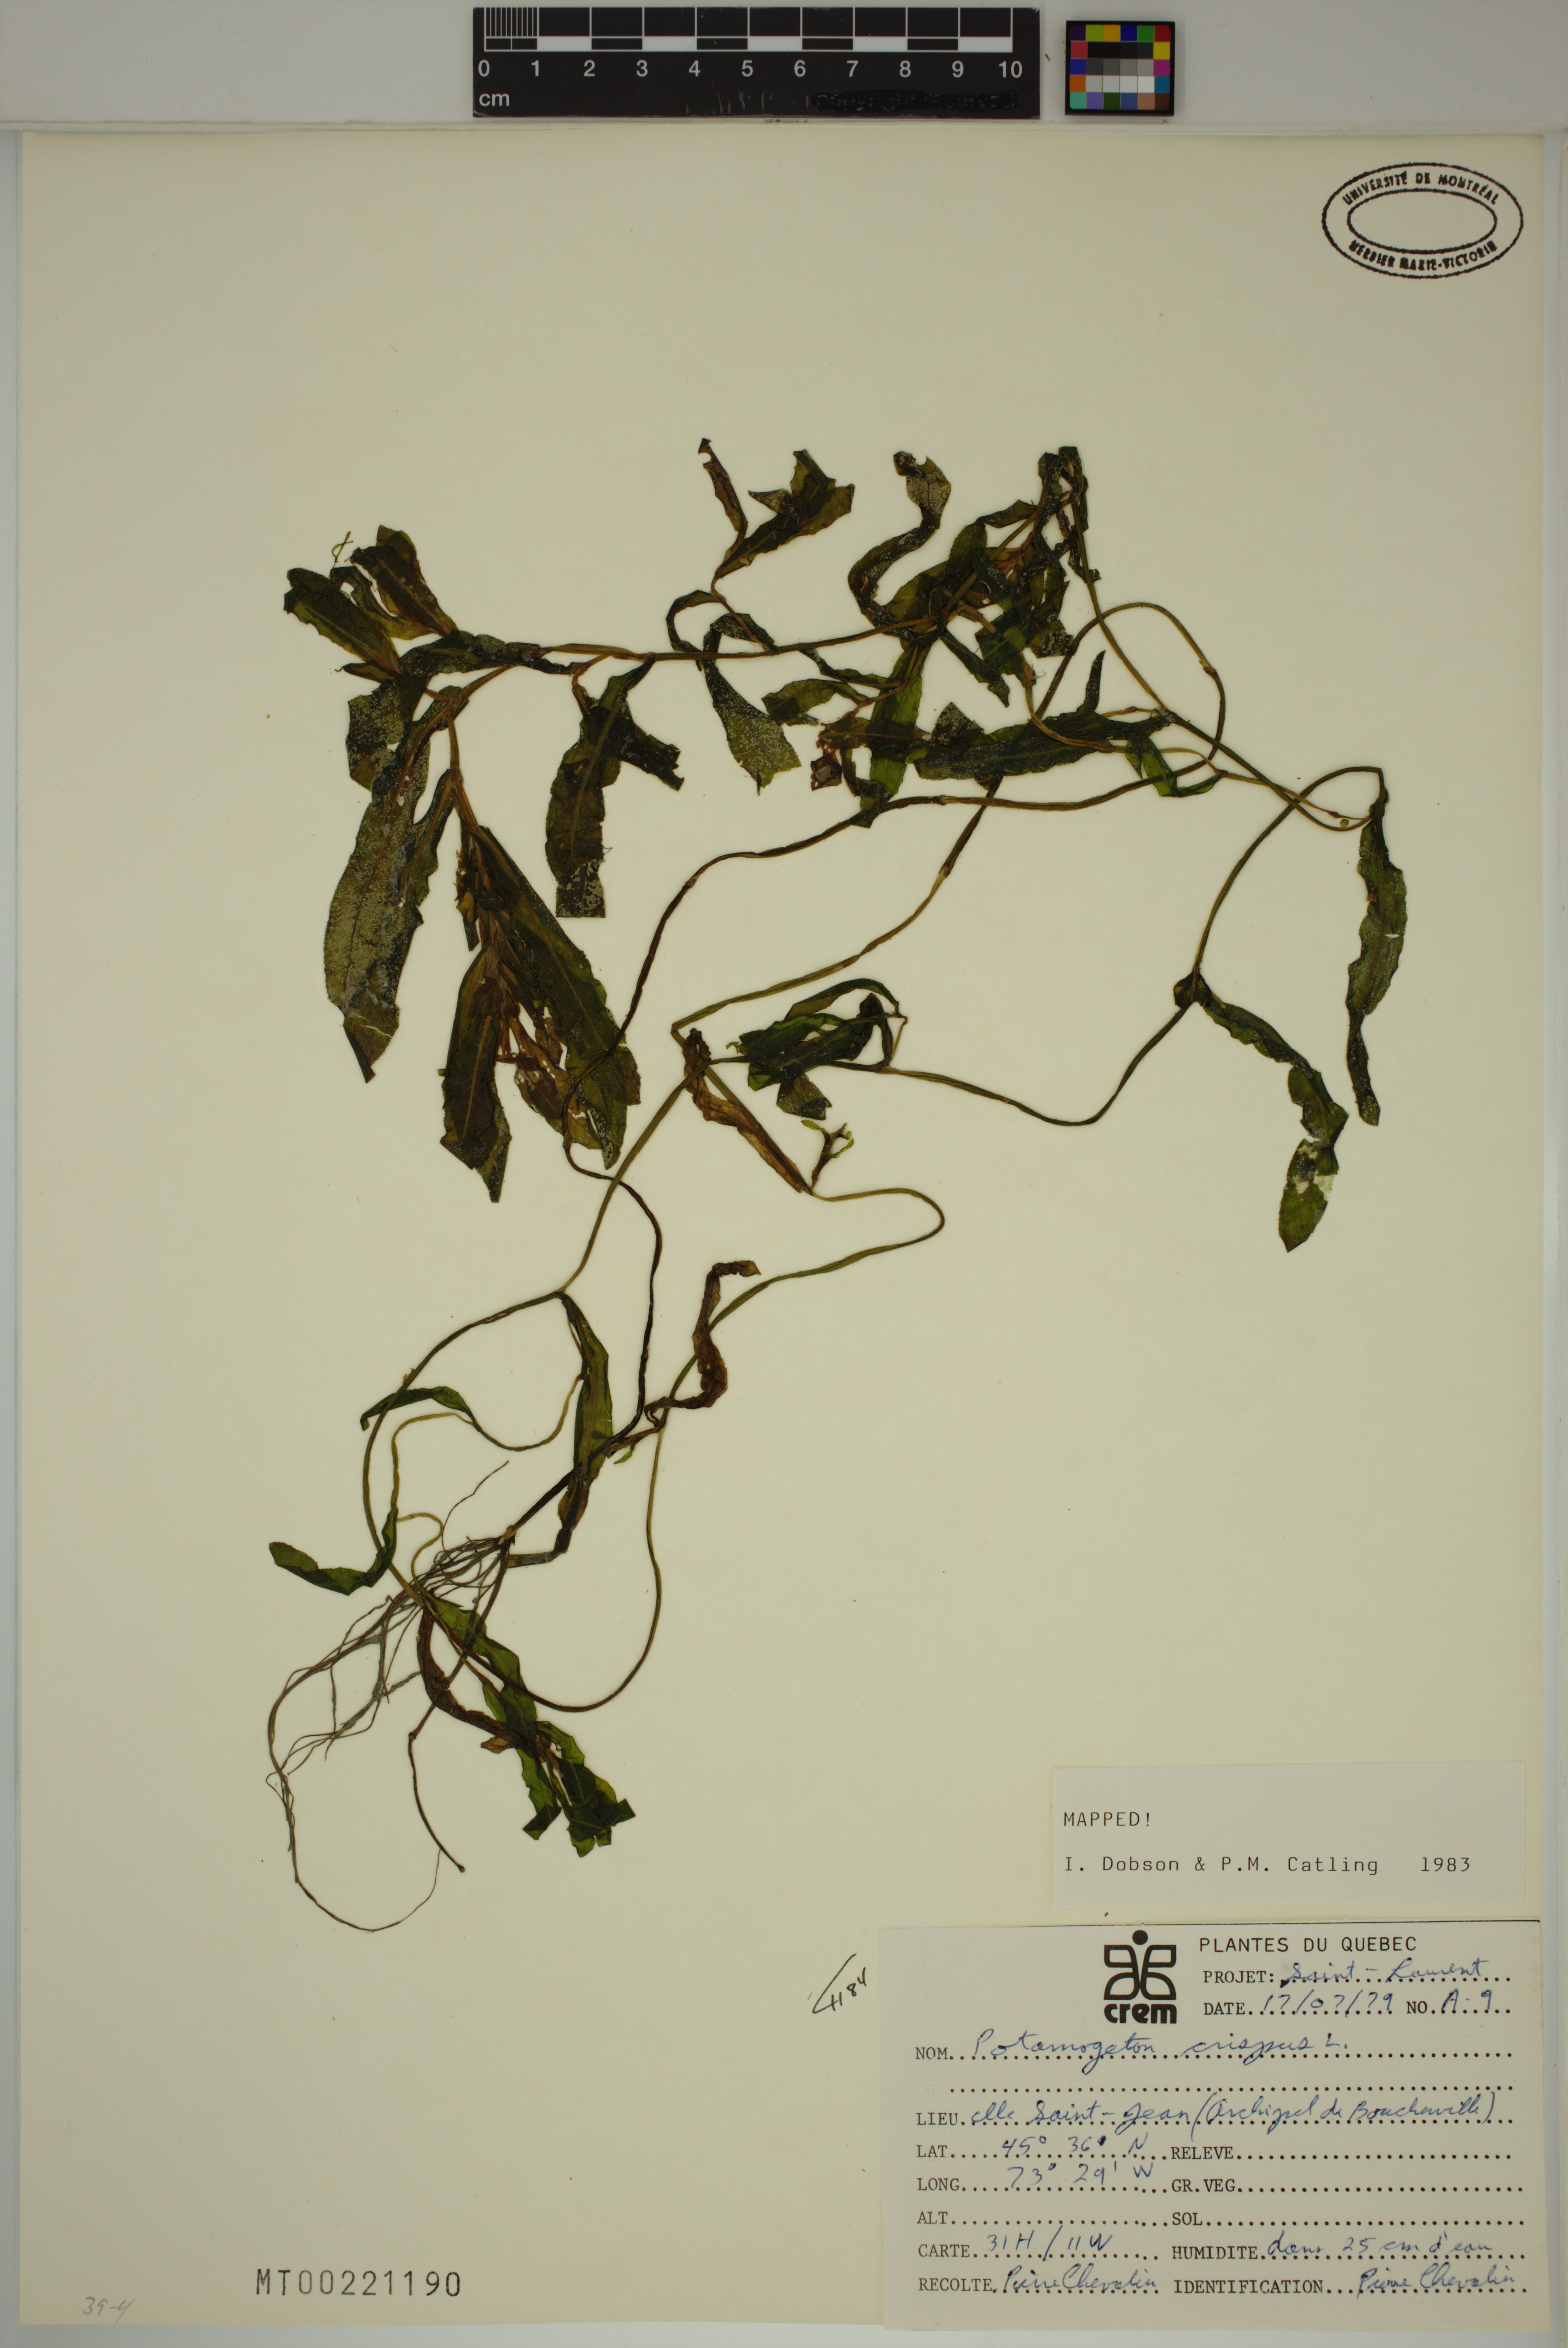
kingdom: Plantae
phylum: Tracheophyta
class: Liliopsida
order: Alismatales
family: Potamogetonaceae
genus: Potamogeton
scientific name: Potamogeton crispus
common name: Curled pondweed
